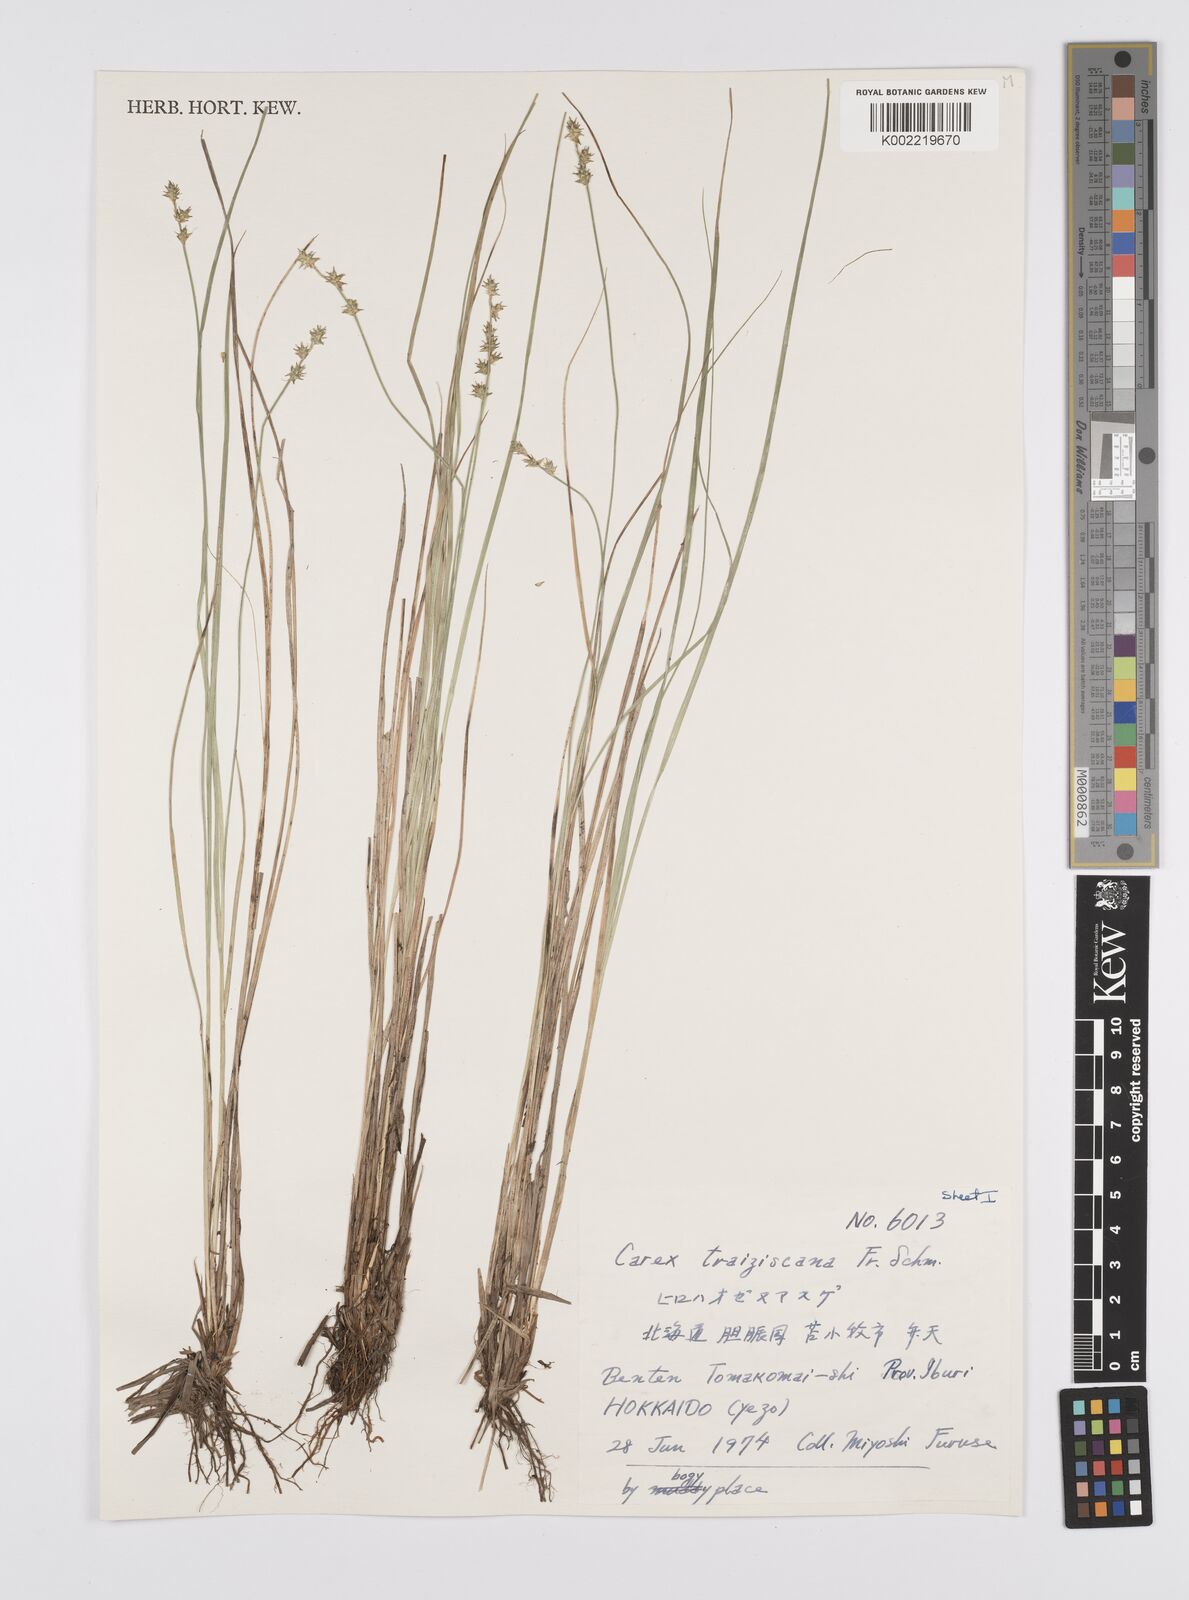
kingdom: Plantae
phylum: Tracheophyta
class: Liliopsida
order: Poales
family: Cyperaceae
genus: Carex
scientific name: Carex traiziscana
